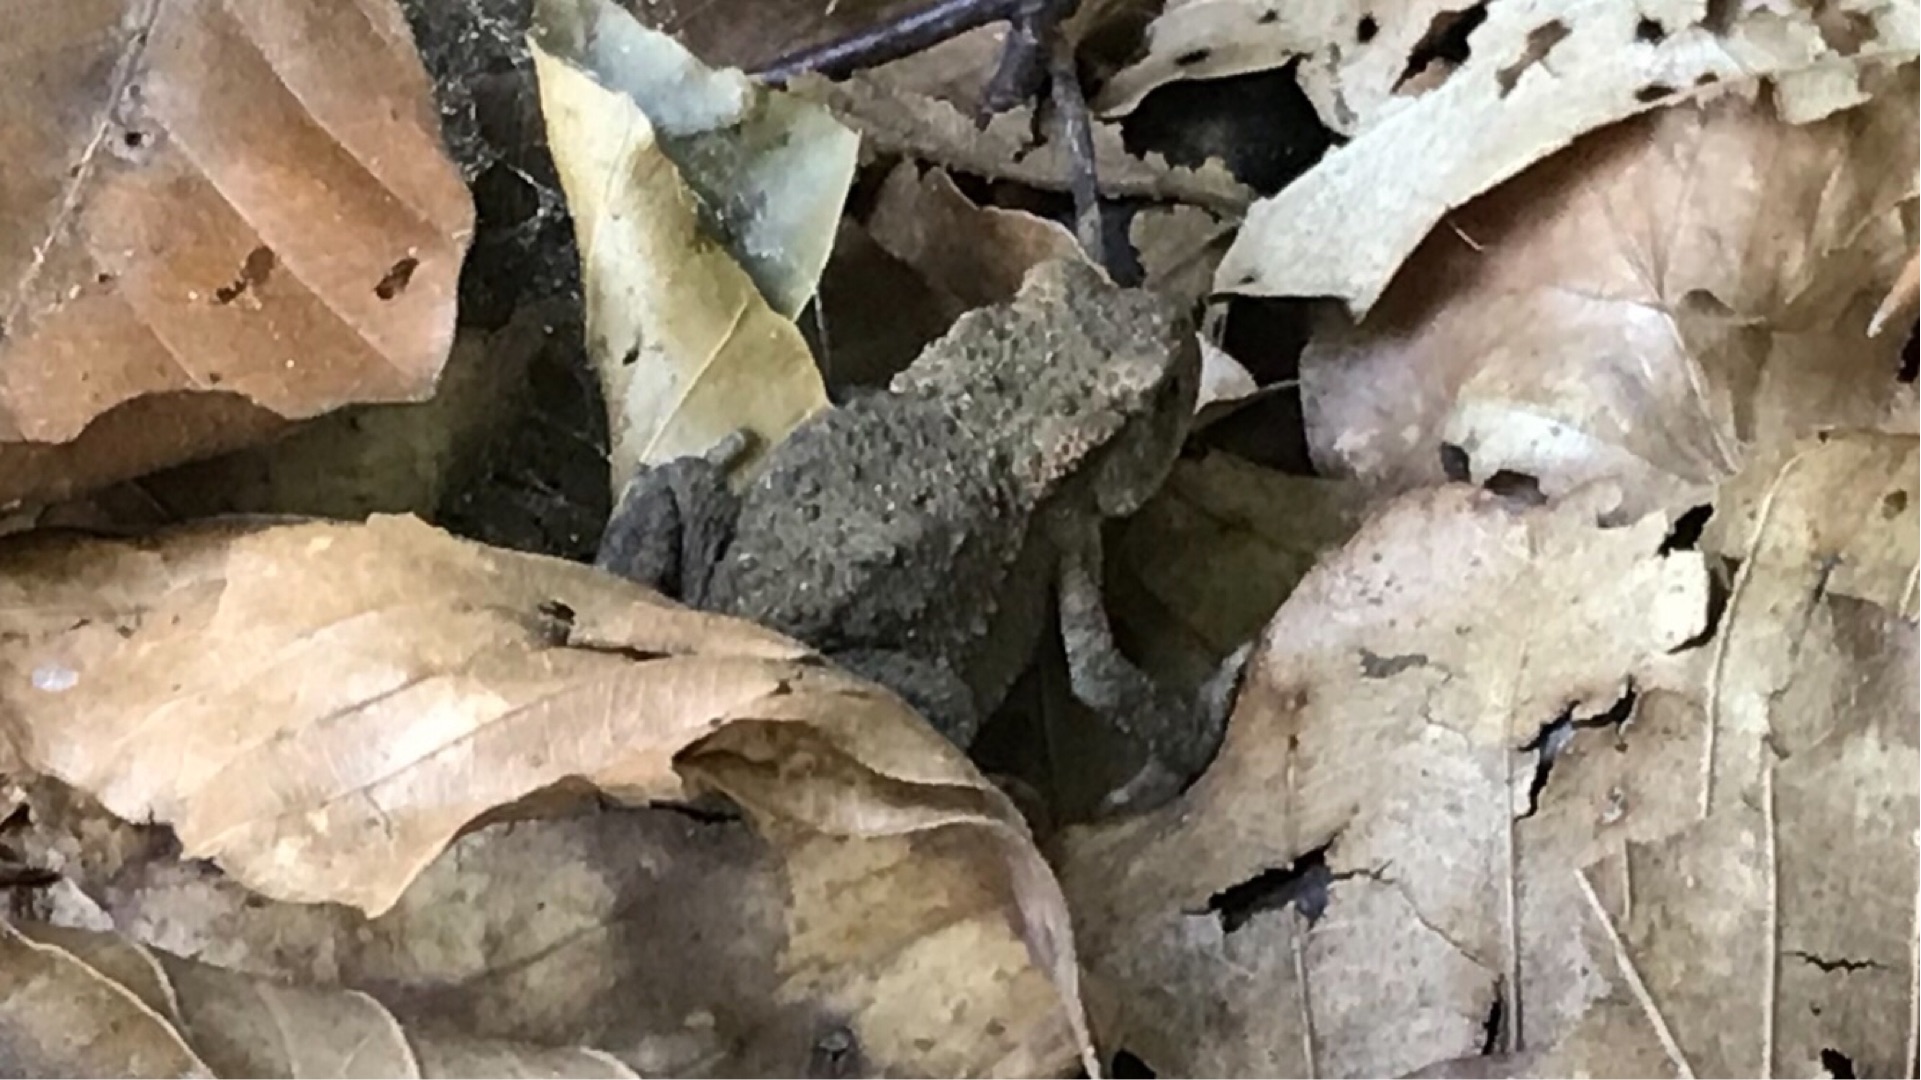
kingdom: Animalia
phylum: Chordata
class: Amphibia
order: Anura
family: Bufonidae
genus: Bufo
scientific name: Bufo bufo
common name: Skrubtudse
